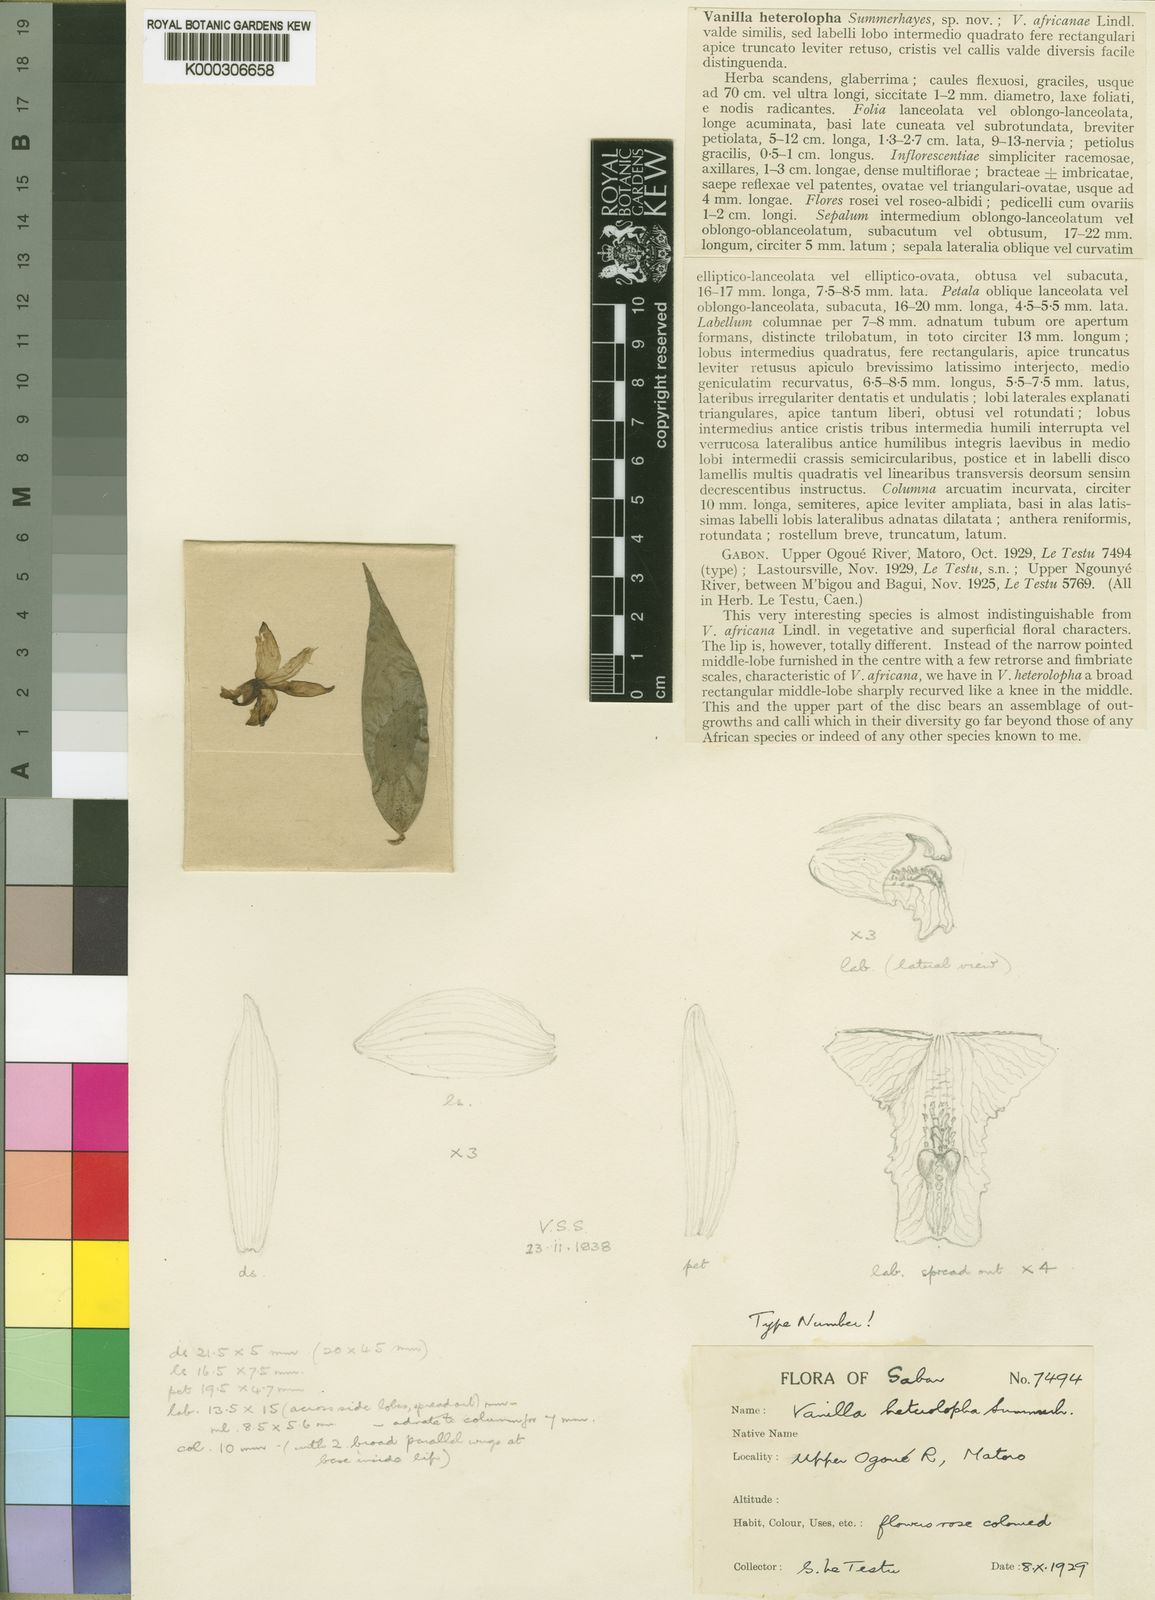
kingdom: Plantae
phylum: Tracheophyta
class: Liliopsida
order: Asparagales
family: Orchidaceae
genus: Vanilla
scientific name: Vanilla africana
